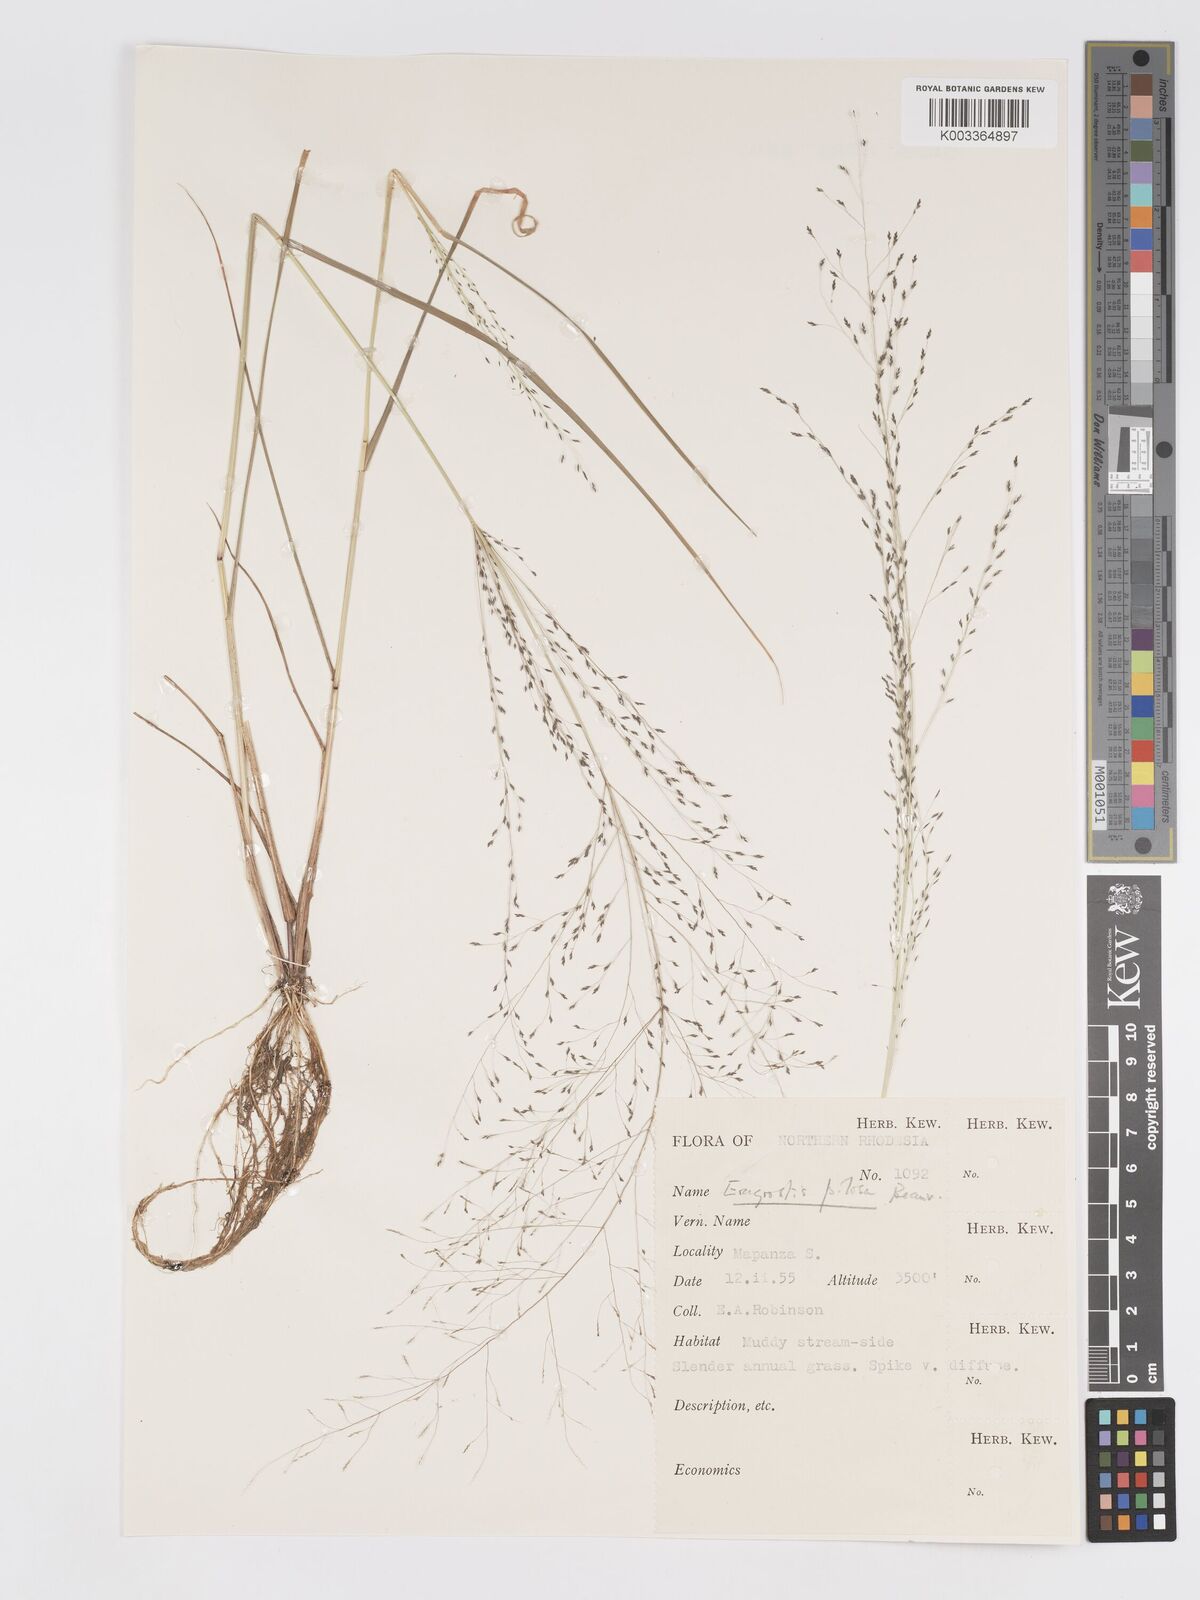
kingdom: Plantae
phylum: Tracheophyta
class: Liliopsida
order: Poales
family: Poaceae
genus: Eragrostis
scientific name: Eragrostis pilosa
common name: Indian lovegrass
